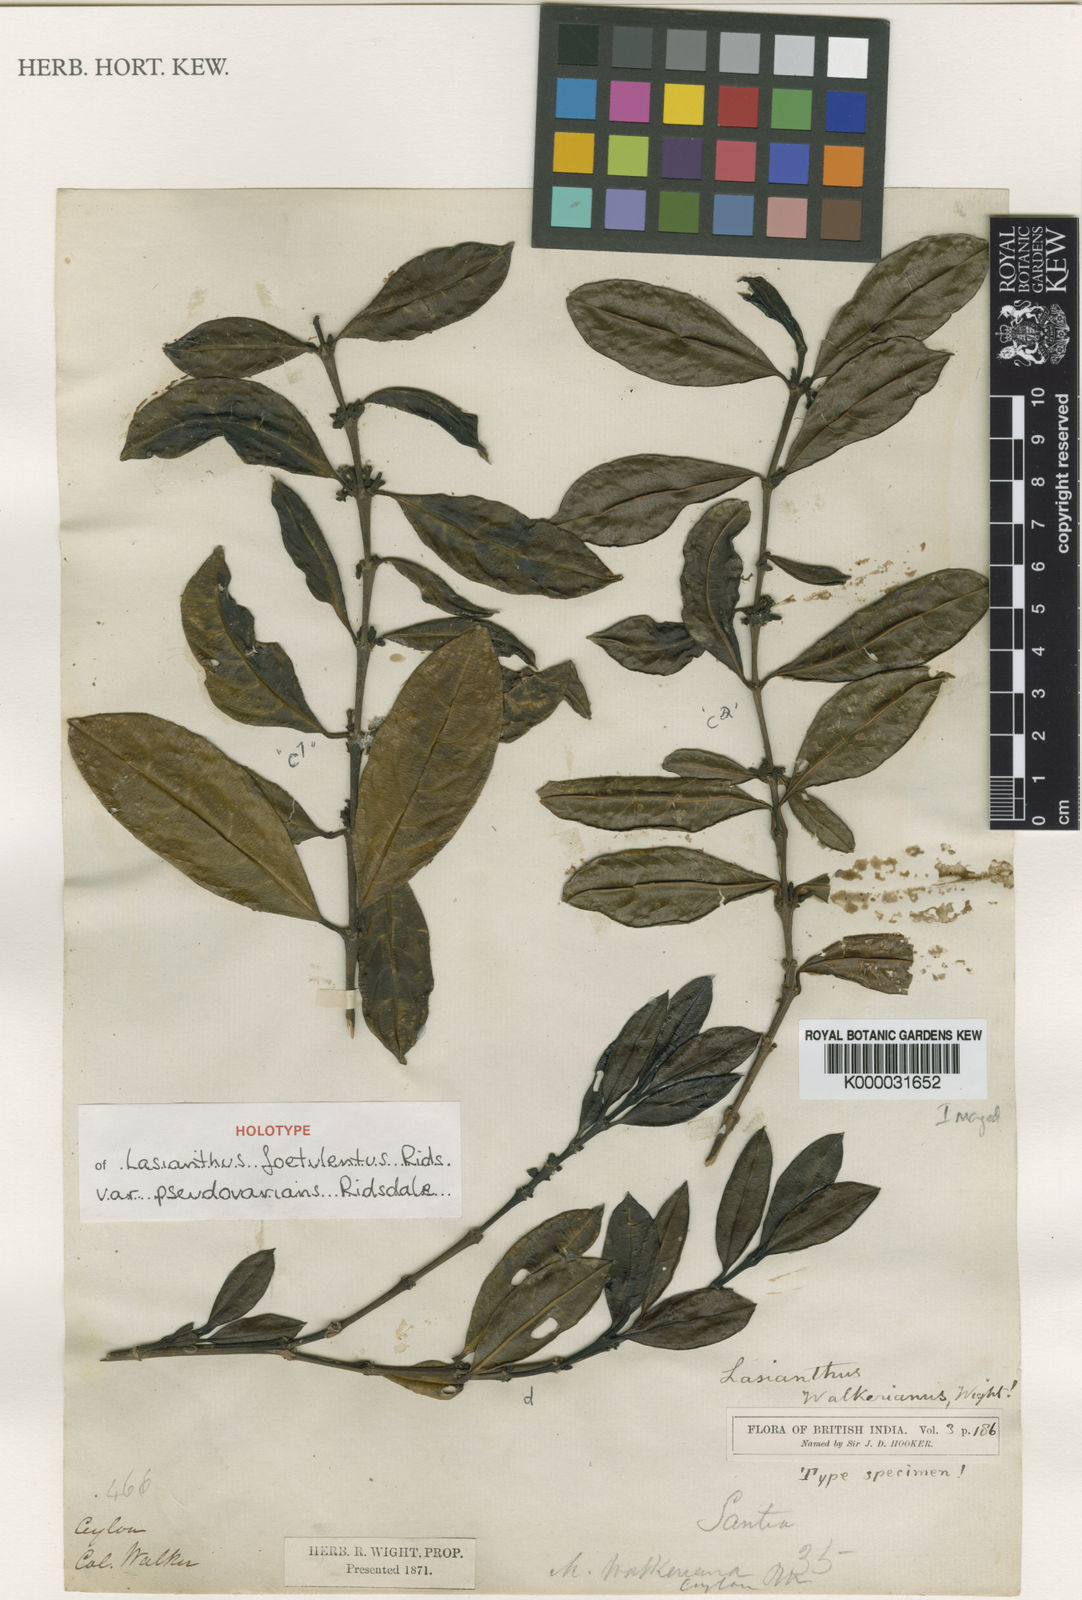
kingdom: Plantae
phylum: Tracheophyta
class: Magnoliopsida
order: Gentianales
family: Rubiaceae
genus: Lasianthus
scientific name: Lasianthus foetulentus
